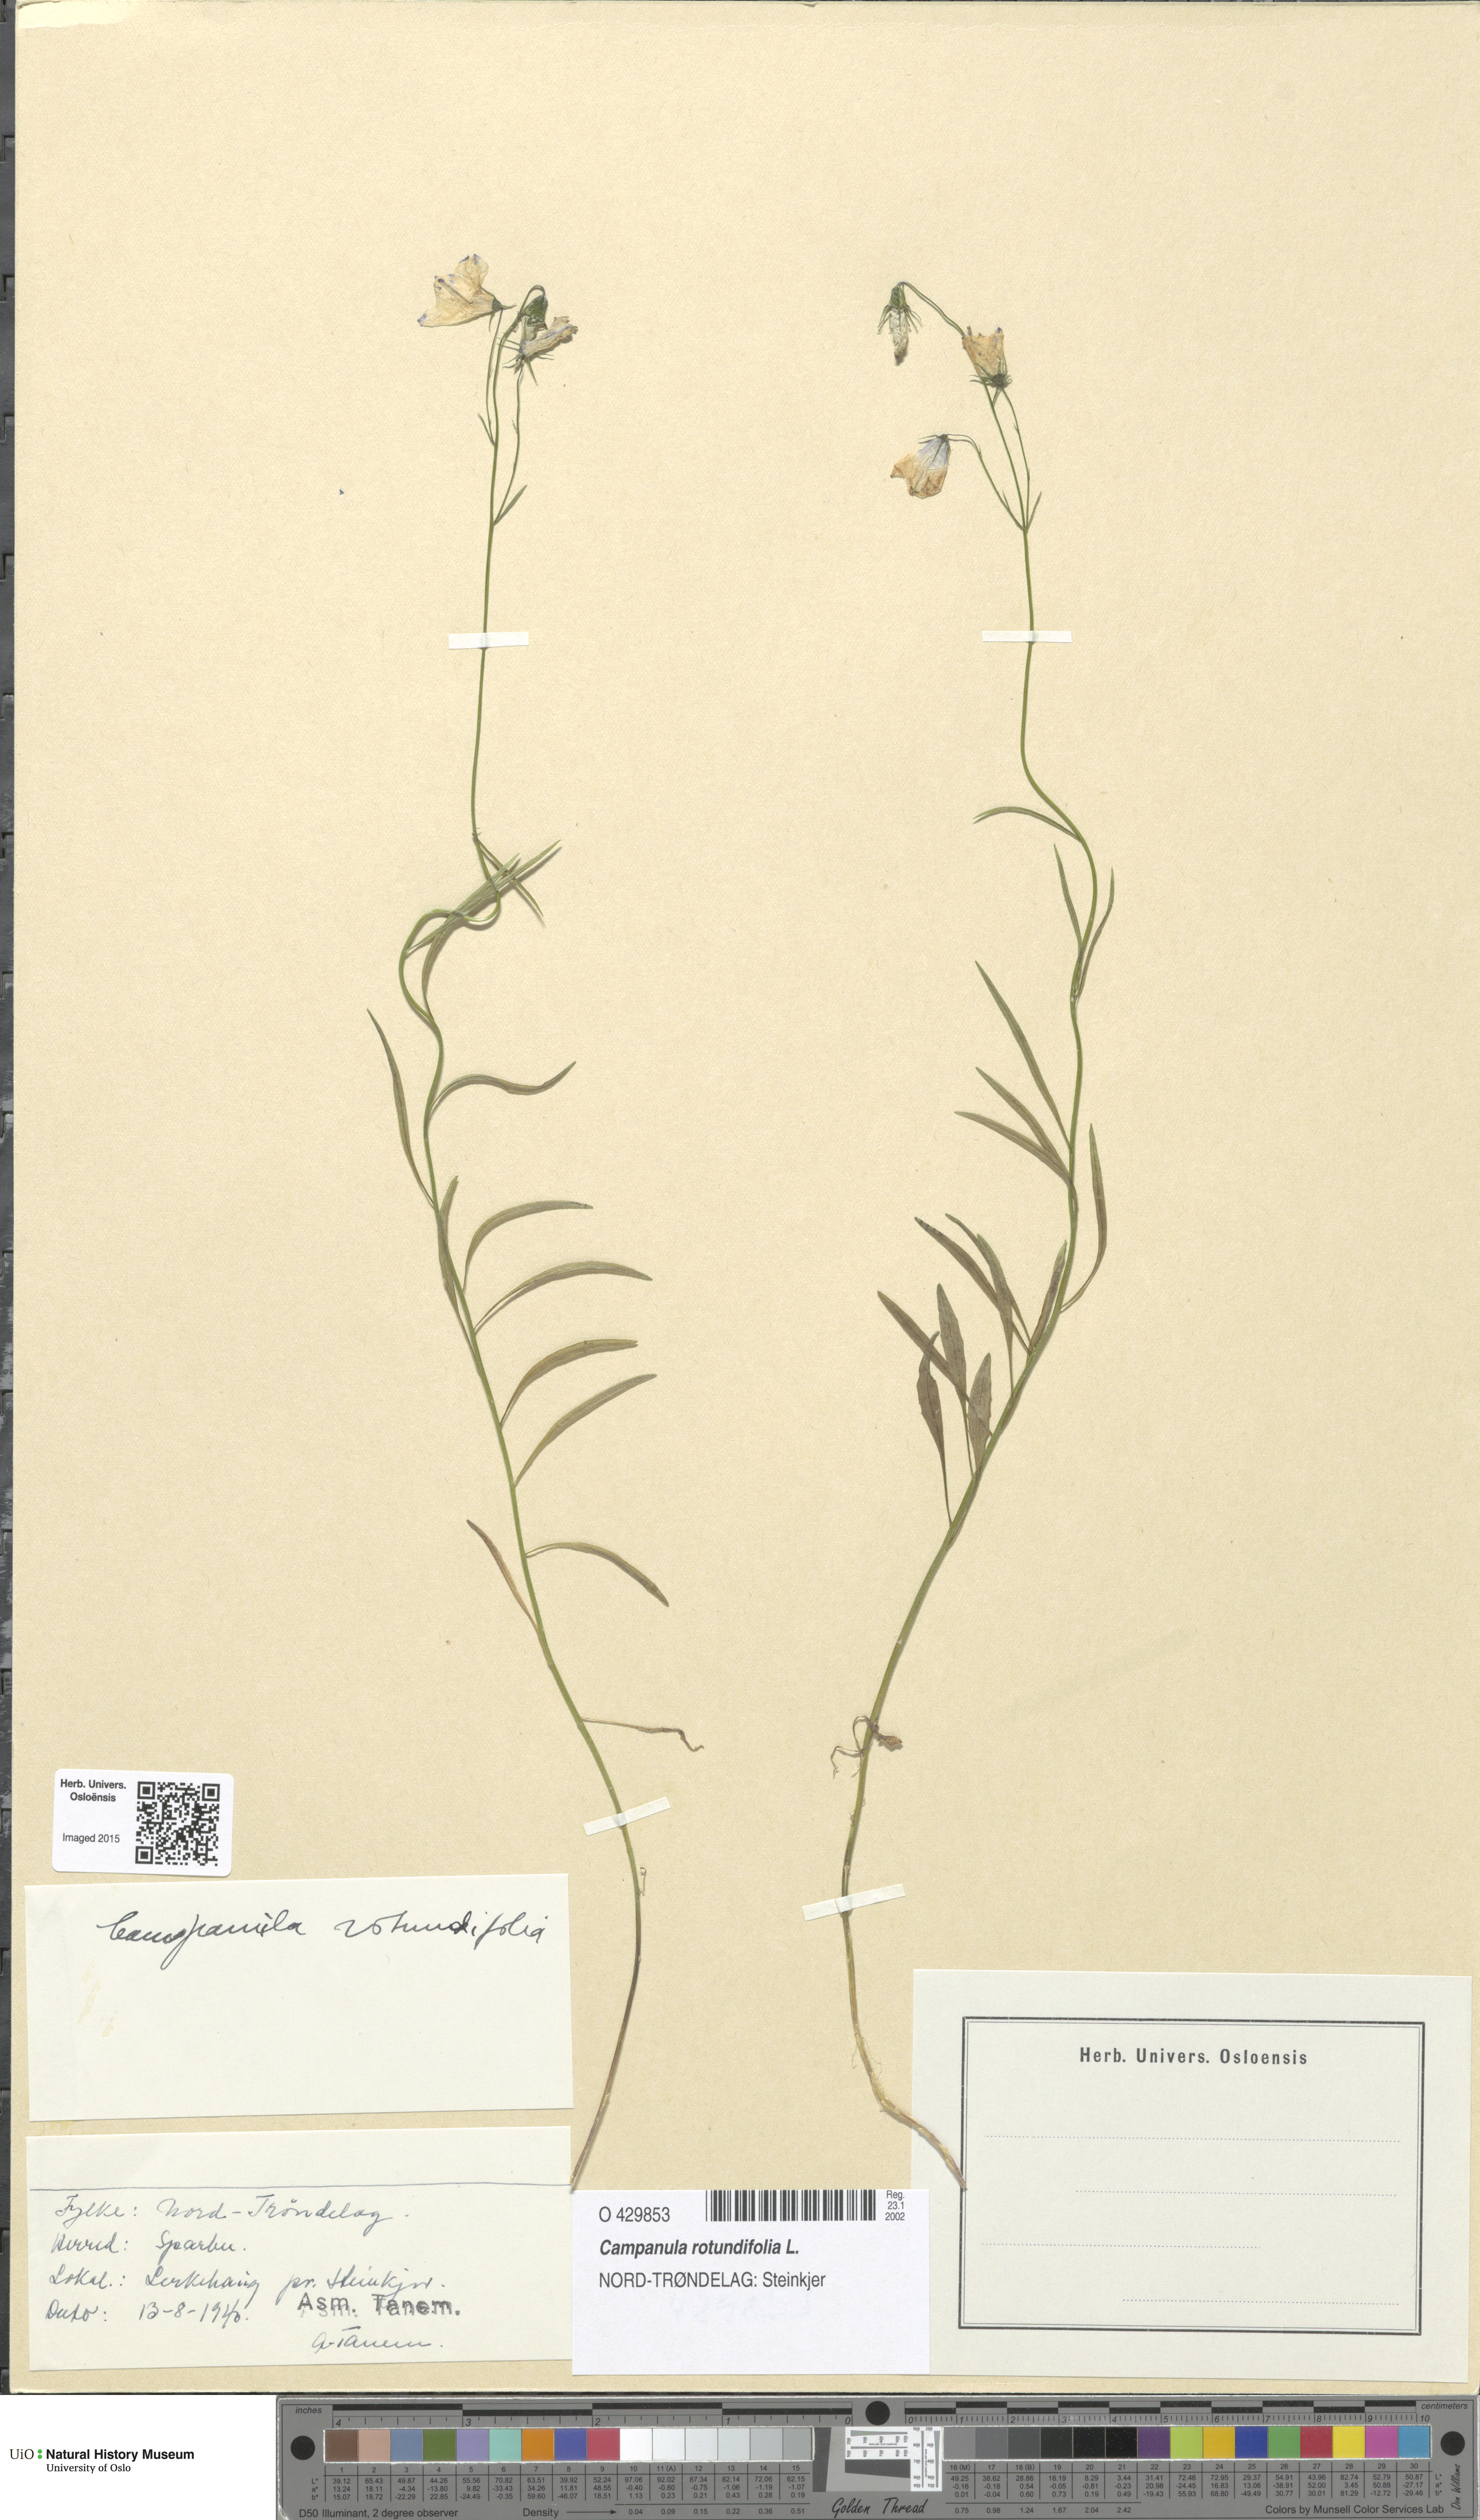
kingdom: Plantae
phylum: Tracheophyta
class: Magnoliopsida
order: Asterales
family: Campanulaceae
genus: Campanula
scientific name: Campanula rotundifolia
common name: Harebell
